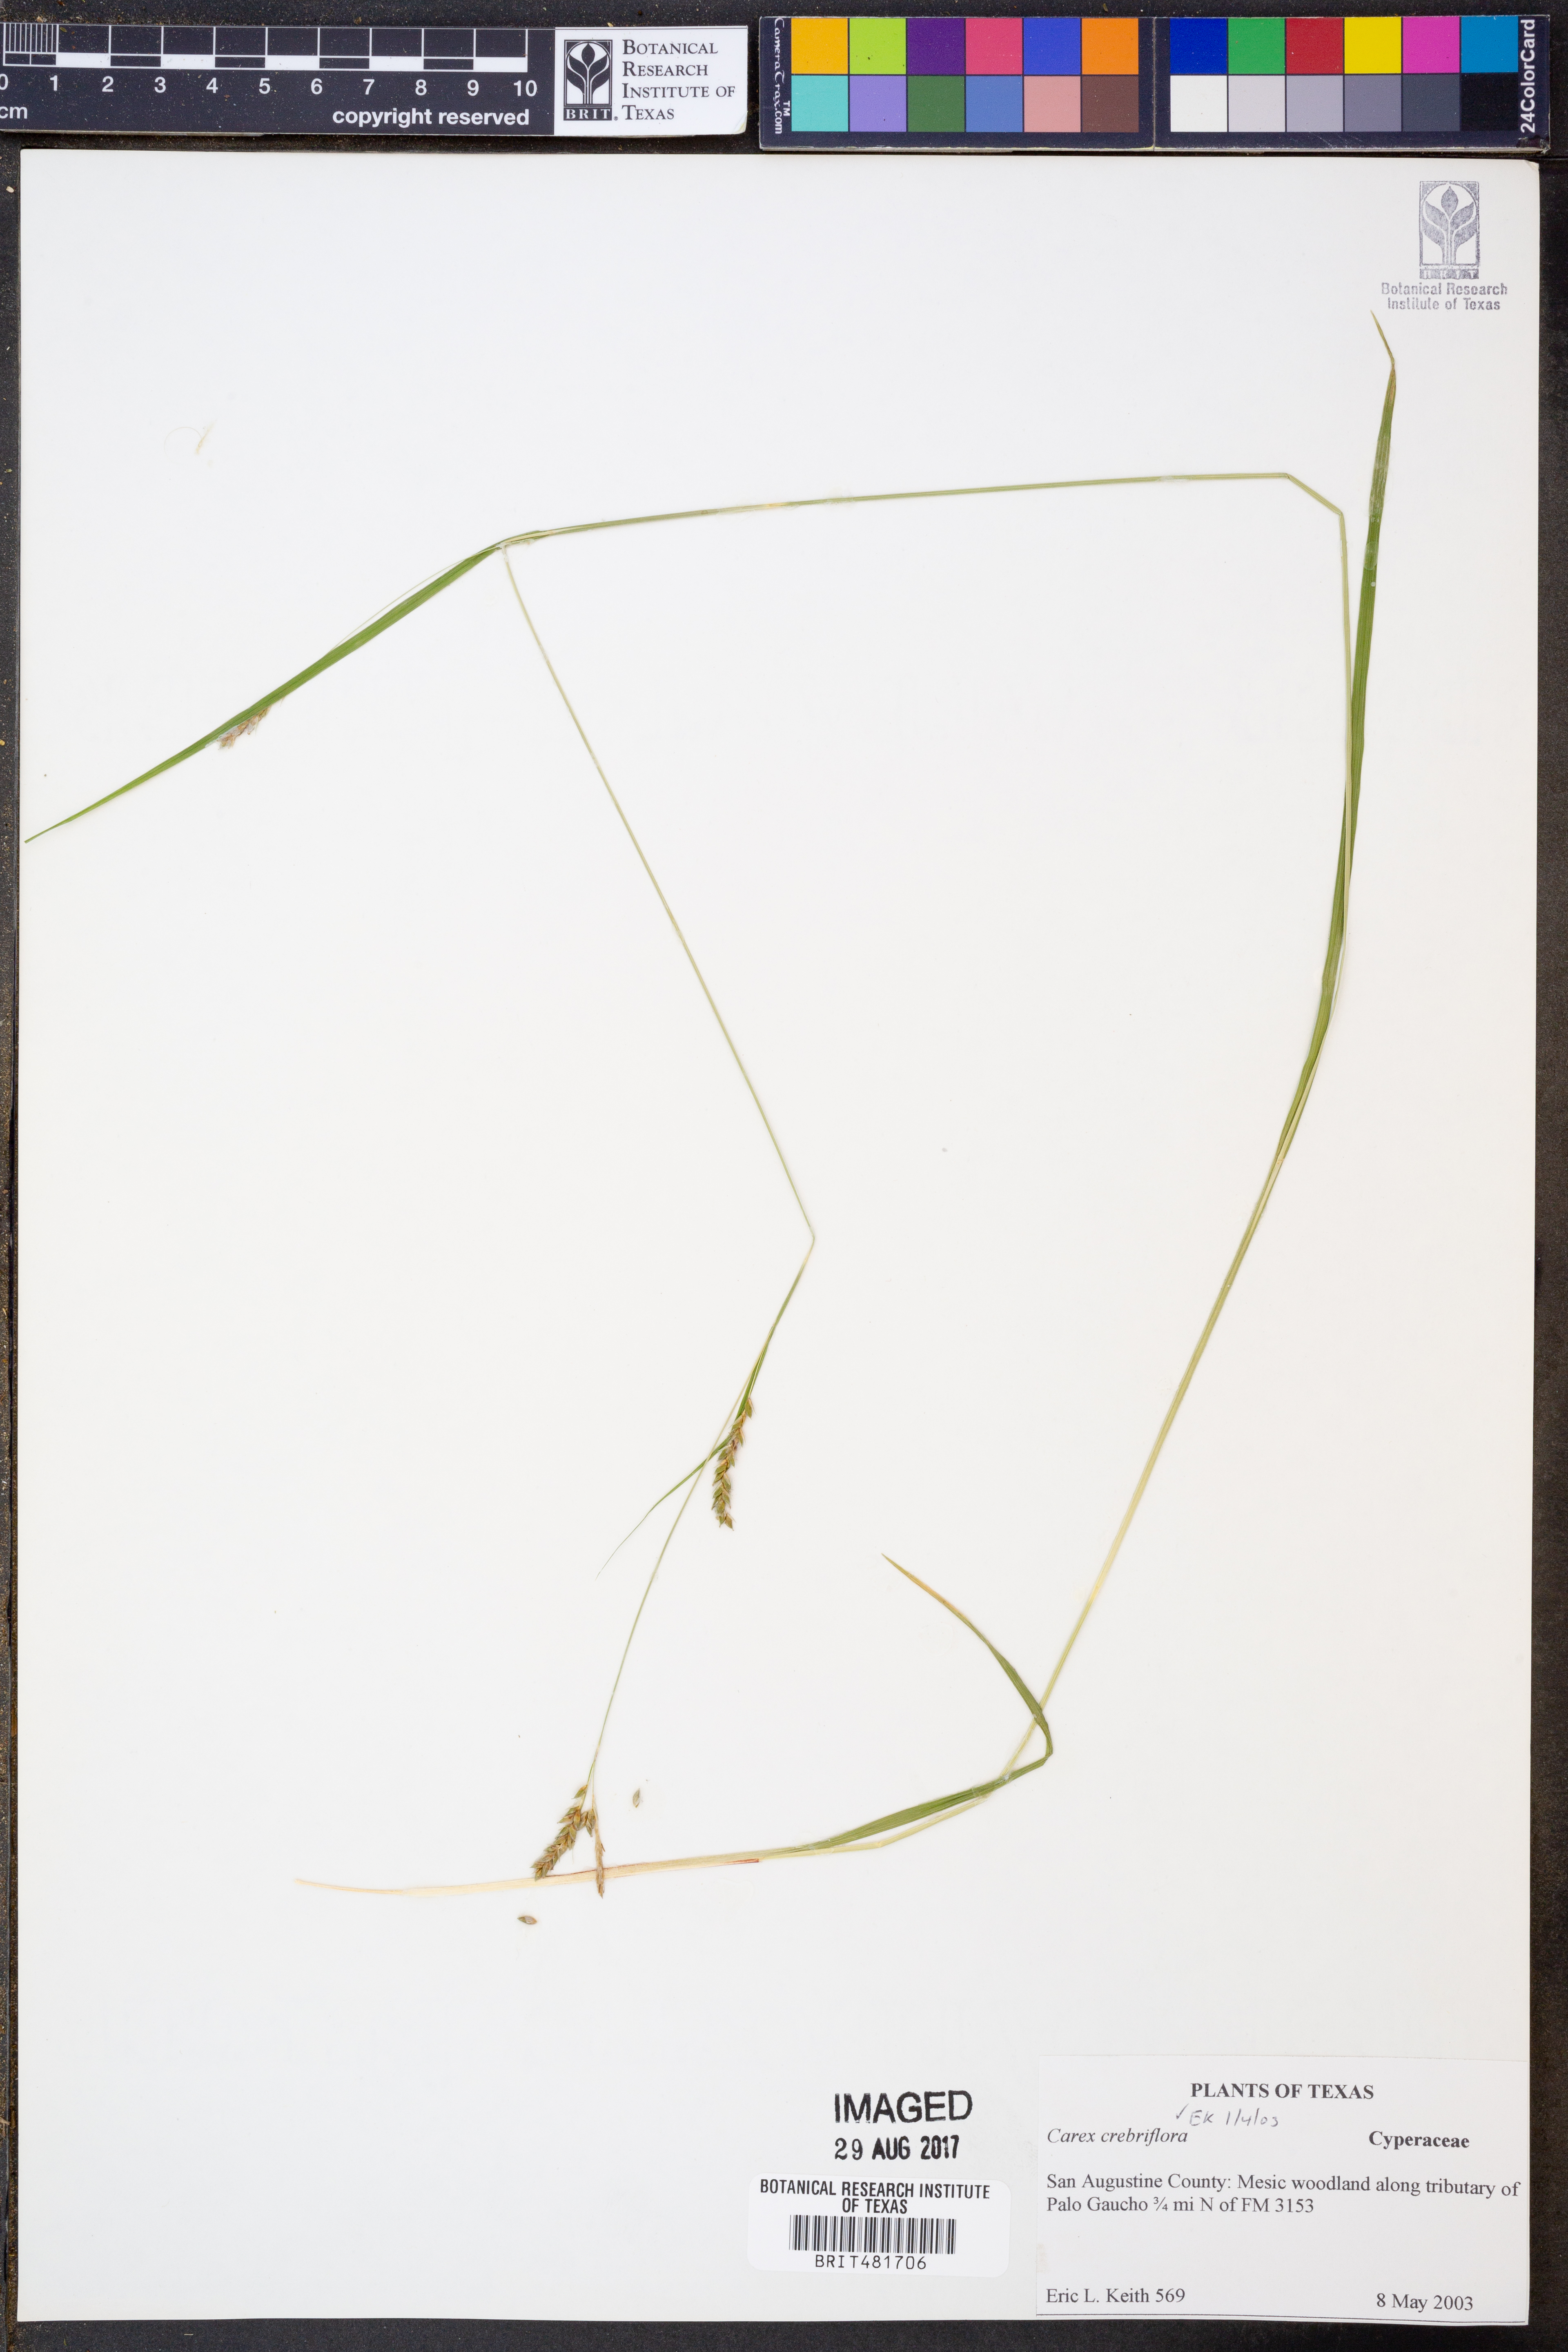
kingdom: Plantae
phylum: Tracheophyta
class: Liliopsida
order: Poales
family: Cyperaceae
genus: Carex
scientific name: Carex crebriflora
